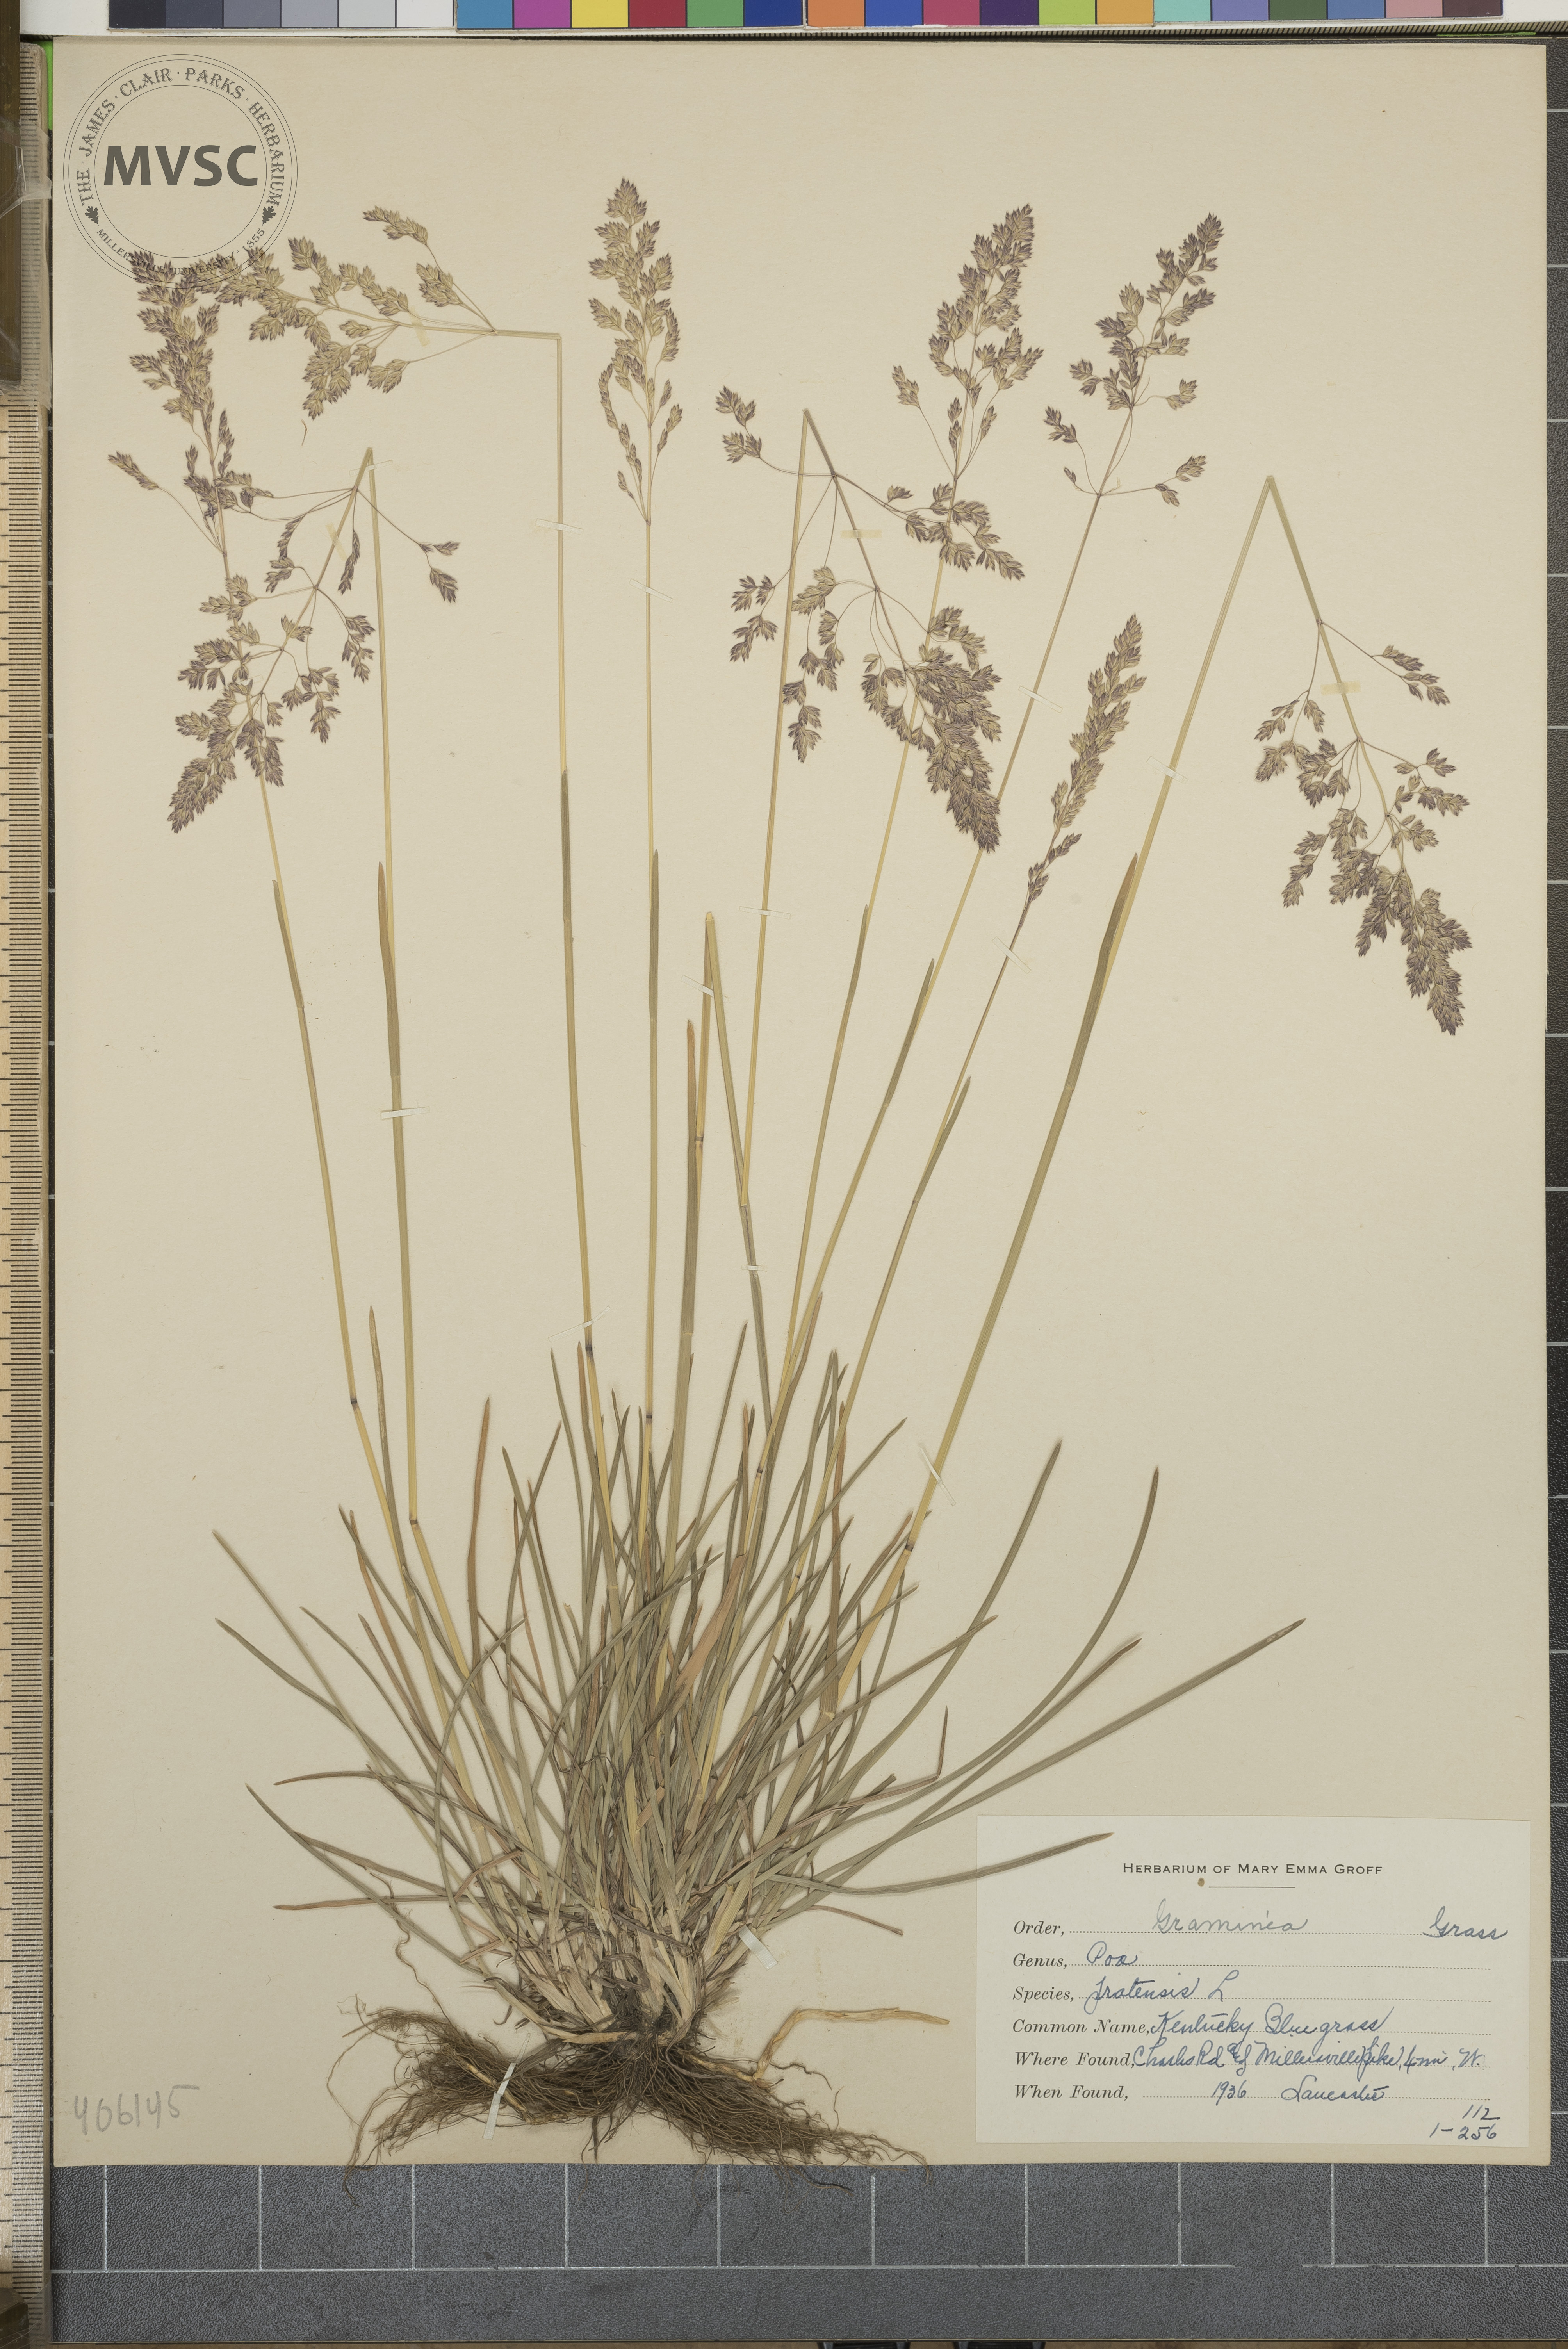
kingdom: Plantae
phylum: Tracheophyta
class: Liliopsida
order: Poales
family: Poaceae
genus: Poa
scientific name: Poa pratensis
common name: Kentucky bluegrass
